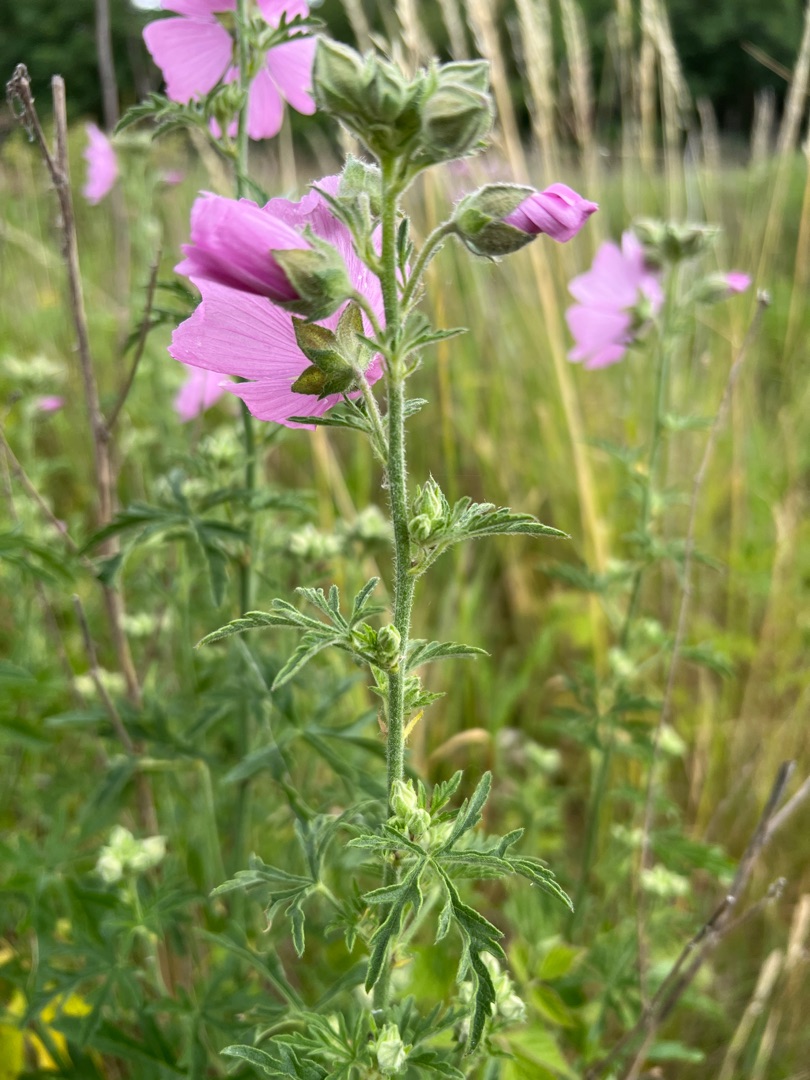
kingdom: Plantae
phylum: Tracheophyta
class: Magnoliopsida
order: Malvales
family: Malvaceae
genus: Malva
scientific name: Malva alcea
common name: Rosen-katost
